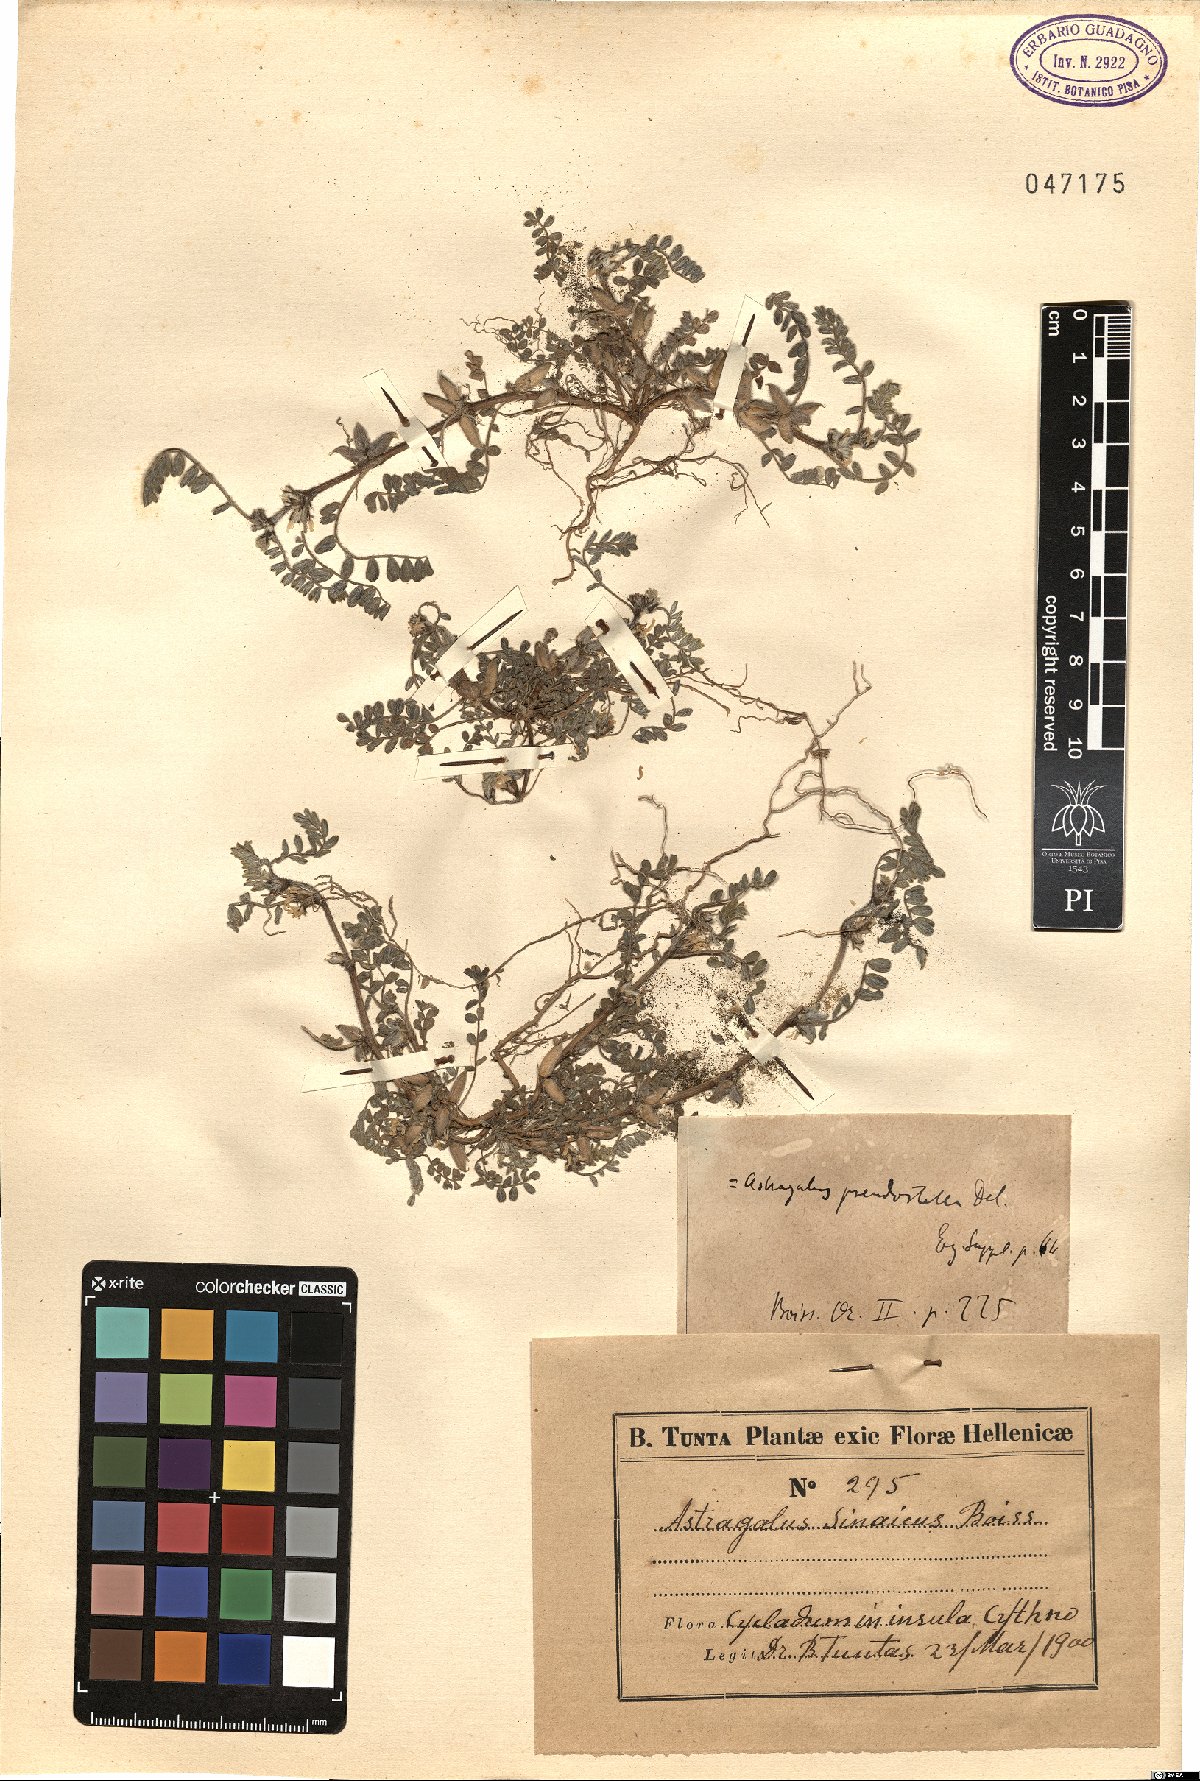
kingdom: Plantae
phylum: Tracheophyta
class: Magnoliopsida
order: Fabales
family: Fabaceae
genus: Astragalus
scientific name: Astragalus sinaicus
